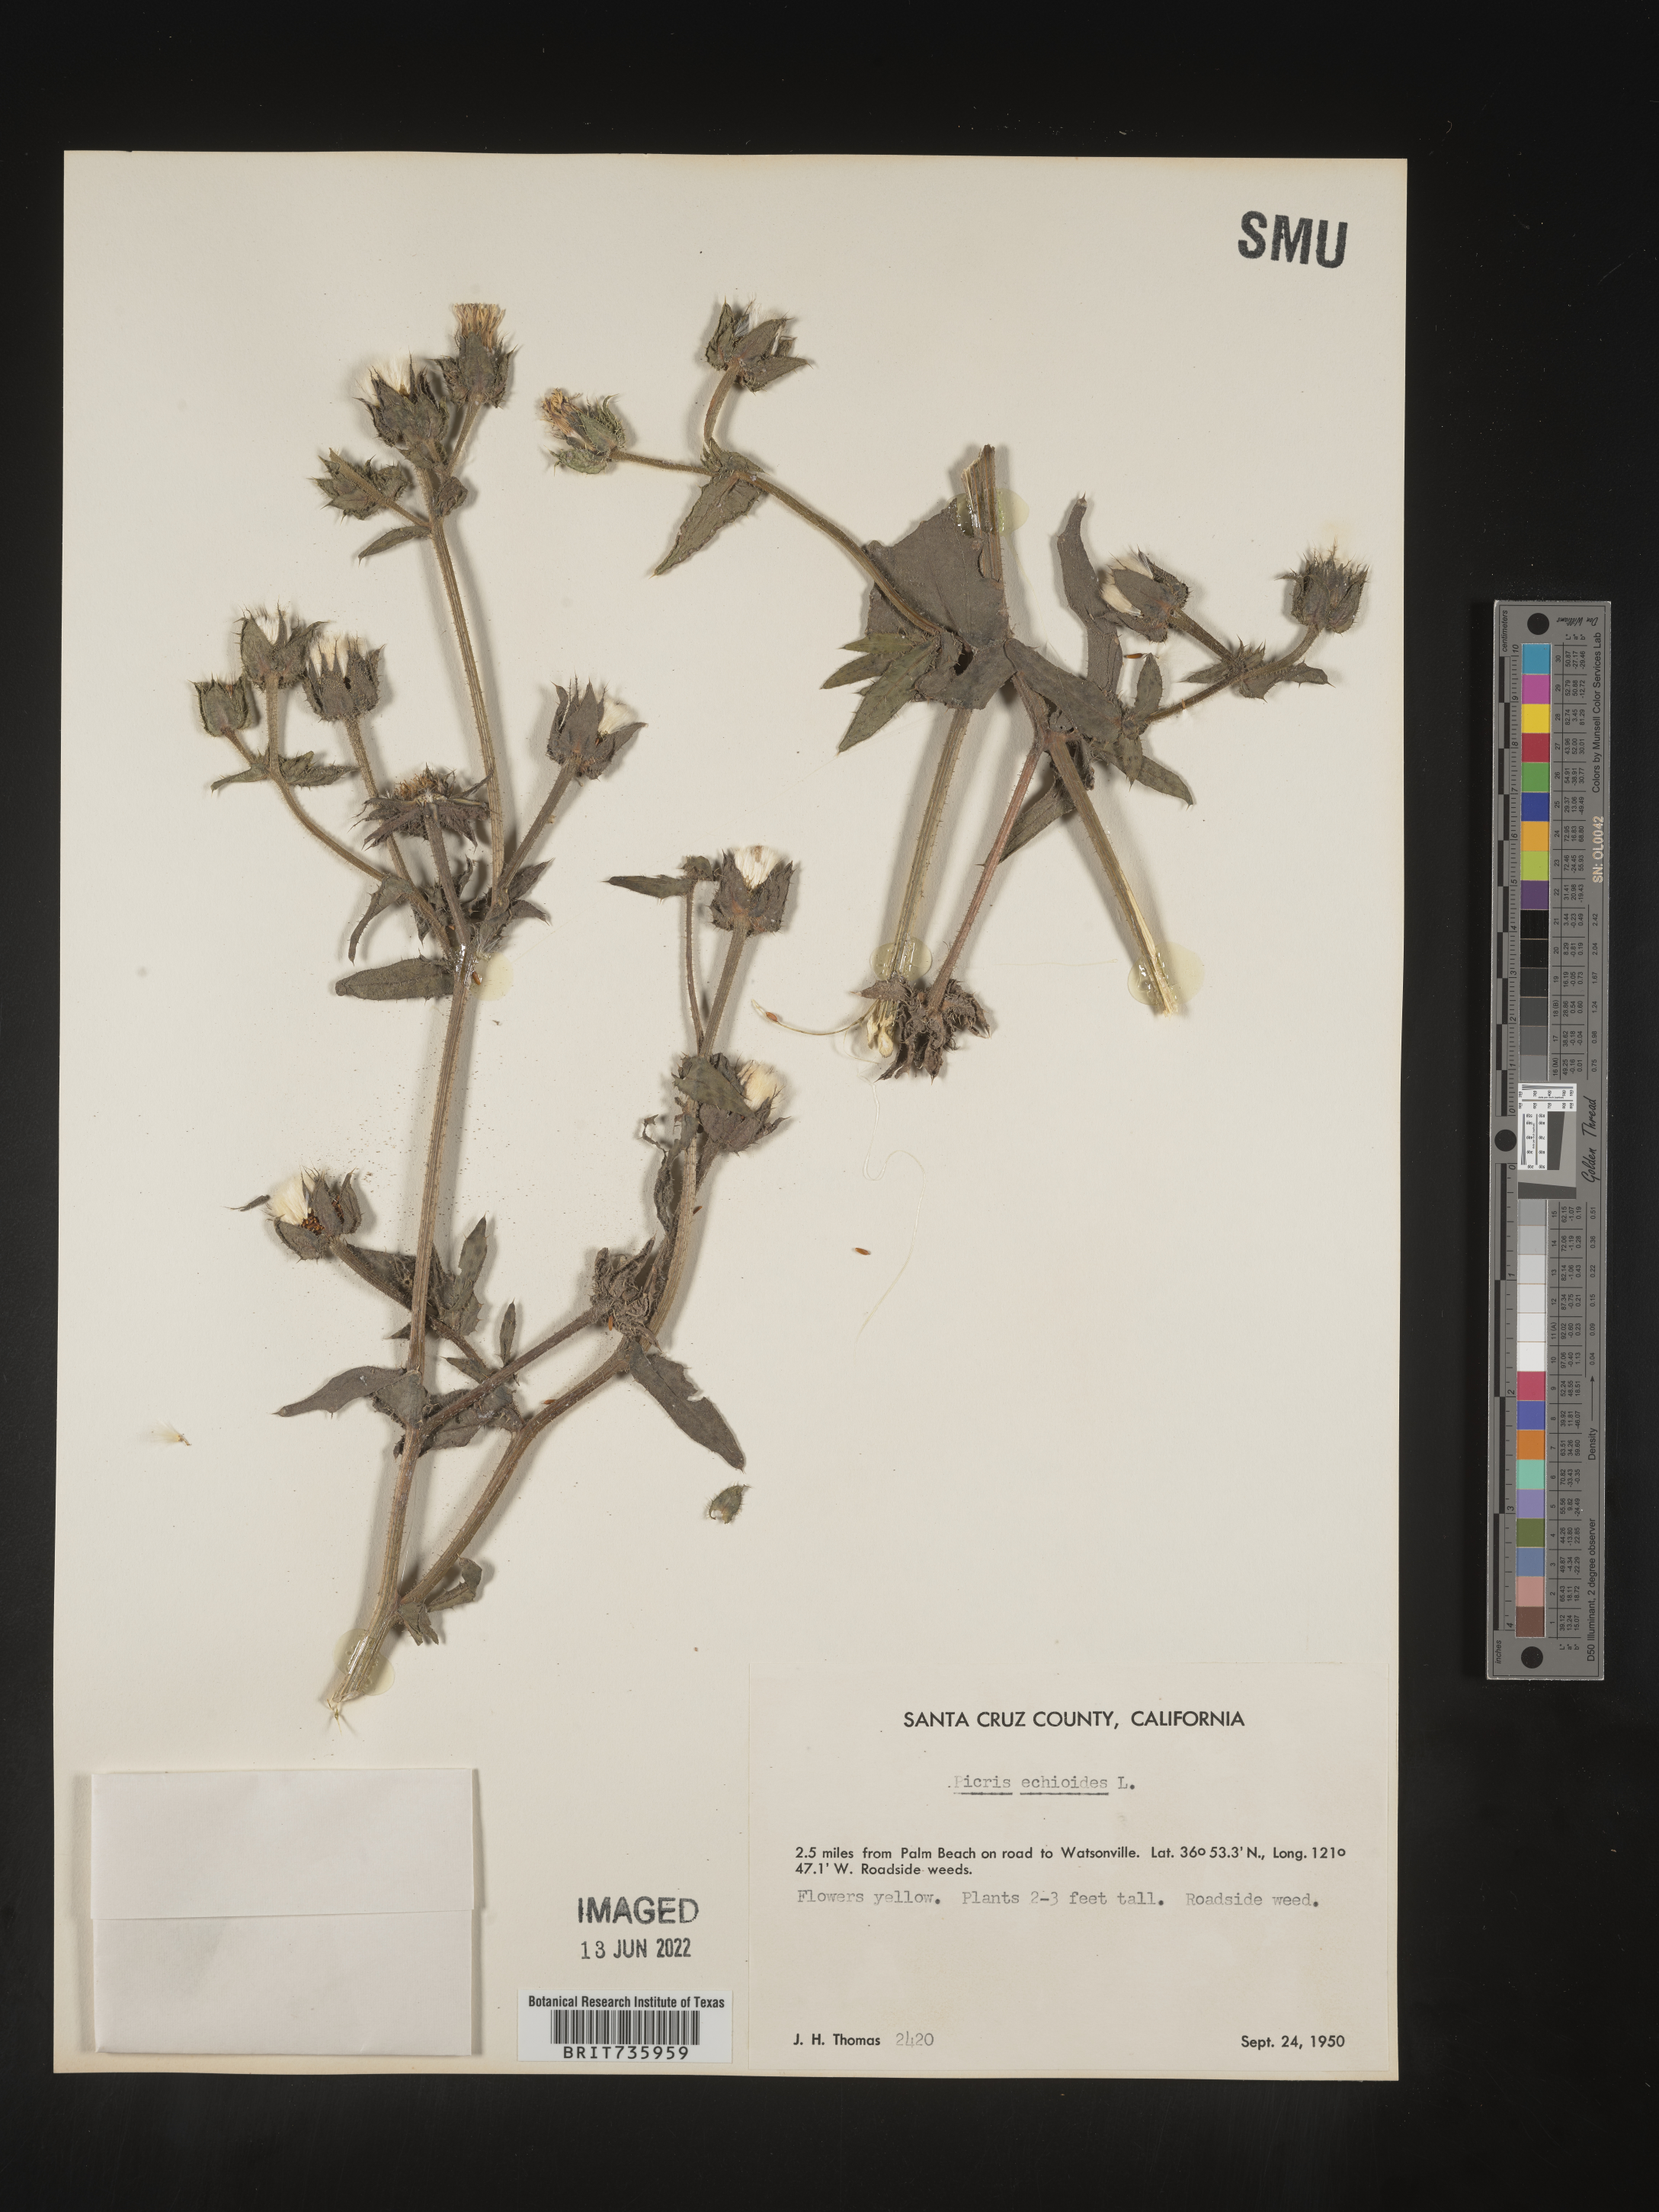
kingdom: Plantae
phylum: Tracheophyta
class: Magnoliopsida
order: Asterales
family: Asteraceae
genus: Picris
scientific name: Picris
